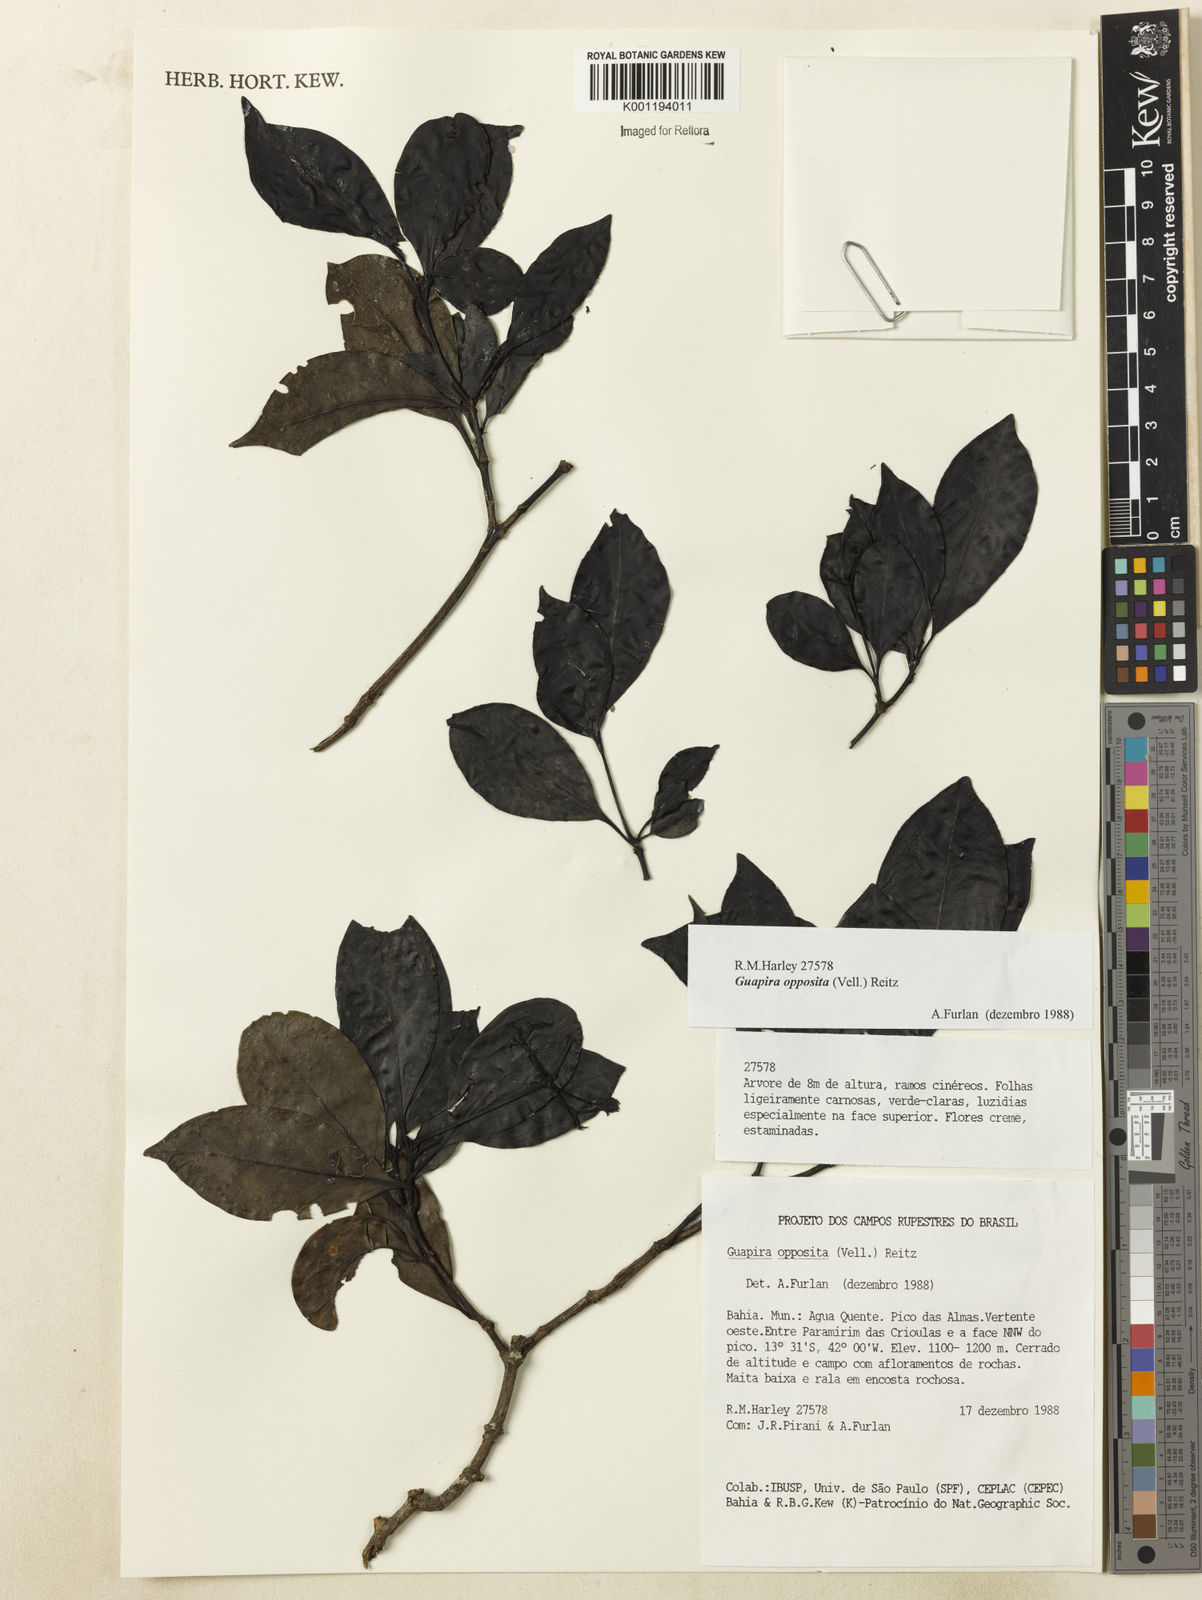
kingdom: Plantae
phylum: Tracheophyta
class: Magnoliopsida
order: Caryophyllales
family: Nyctaginaceae
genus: Guapira
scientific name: Guapira opposita
